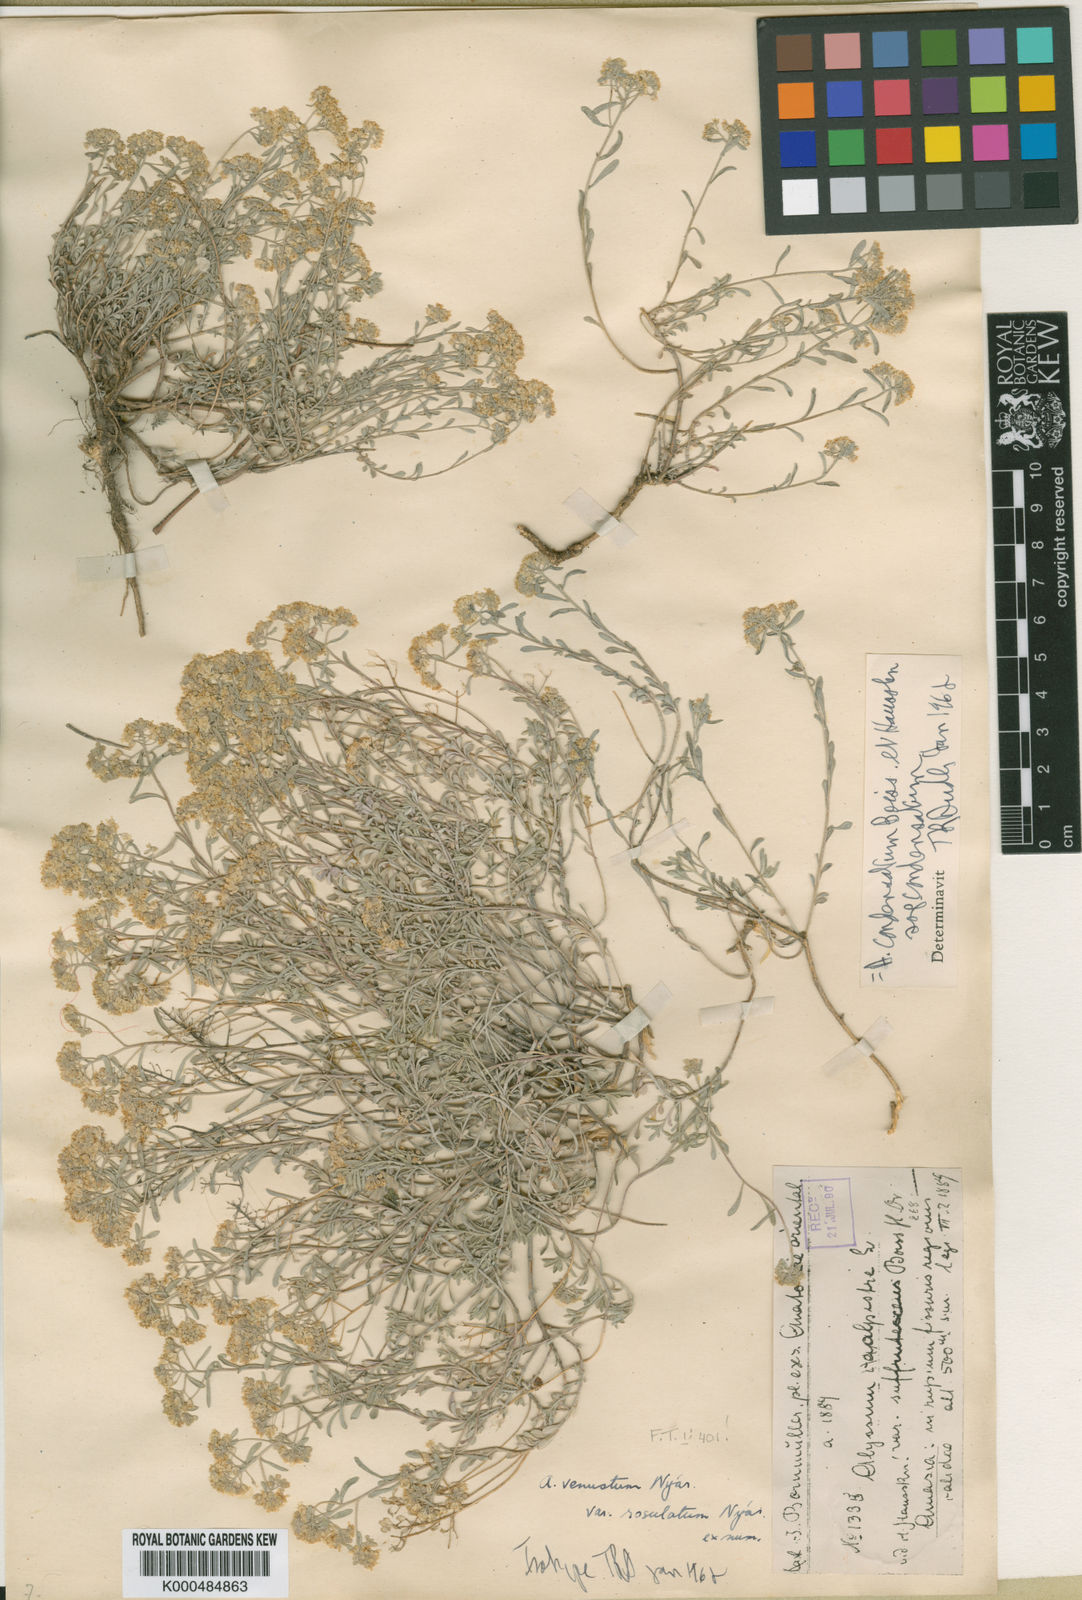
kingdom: Plantae
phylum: Tracheophyta
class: Magnoliopsida
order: Brassicales
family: Brassicaceae
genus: Odontarrhena
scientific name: Odontarrhena condensata
